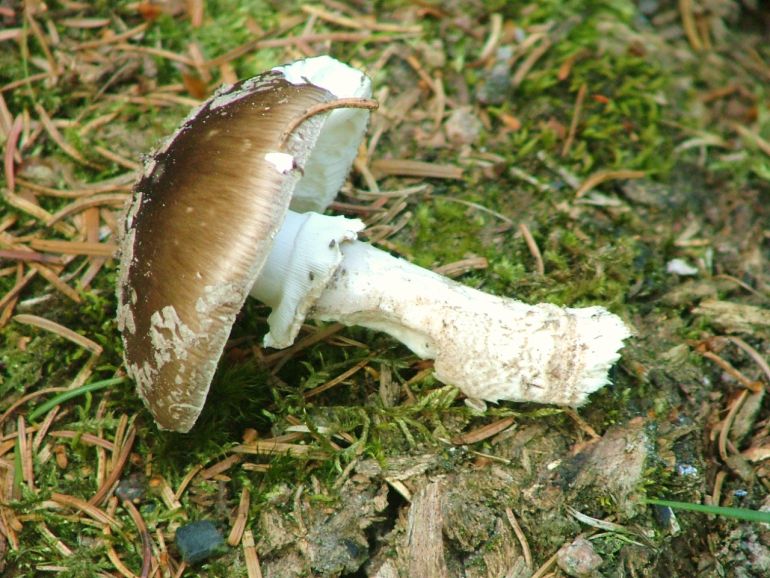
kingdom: Fungi
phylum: Basidiomycota
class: Agaricomycetes
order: Agaricales
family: Amanitaceae
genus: Amanita
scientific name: Amanita
